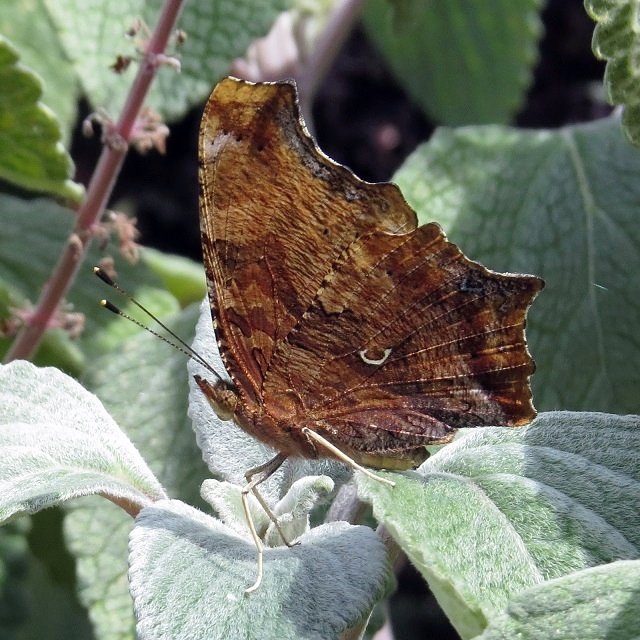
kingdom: Animalia
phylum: Arthropoda
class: Insecta
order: Lepidoptera
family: Nymphalidae
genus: Polygonia
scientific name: Polygonia comma
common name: Eastern Comma
